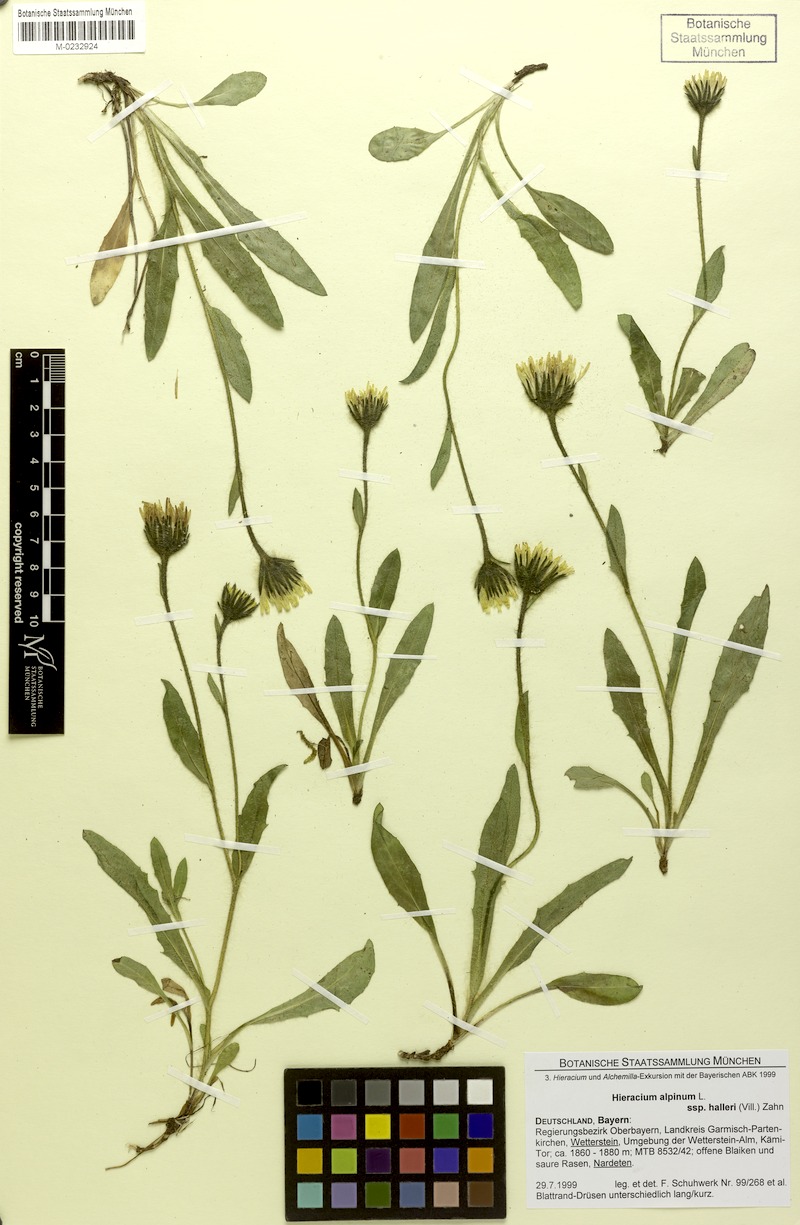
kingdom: Plantae
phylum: Tracheophyta
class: Magnoliopsida
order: Asterales
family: Asteraceae
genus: Hieracium
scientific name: Hieracium alpinum
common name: Alpine hawkweed
